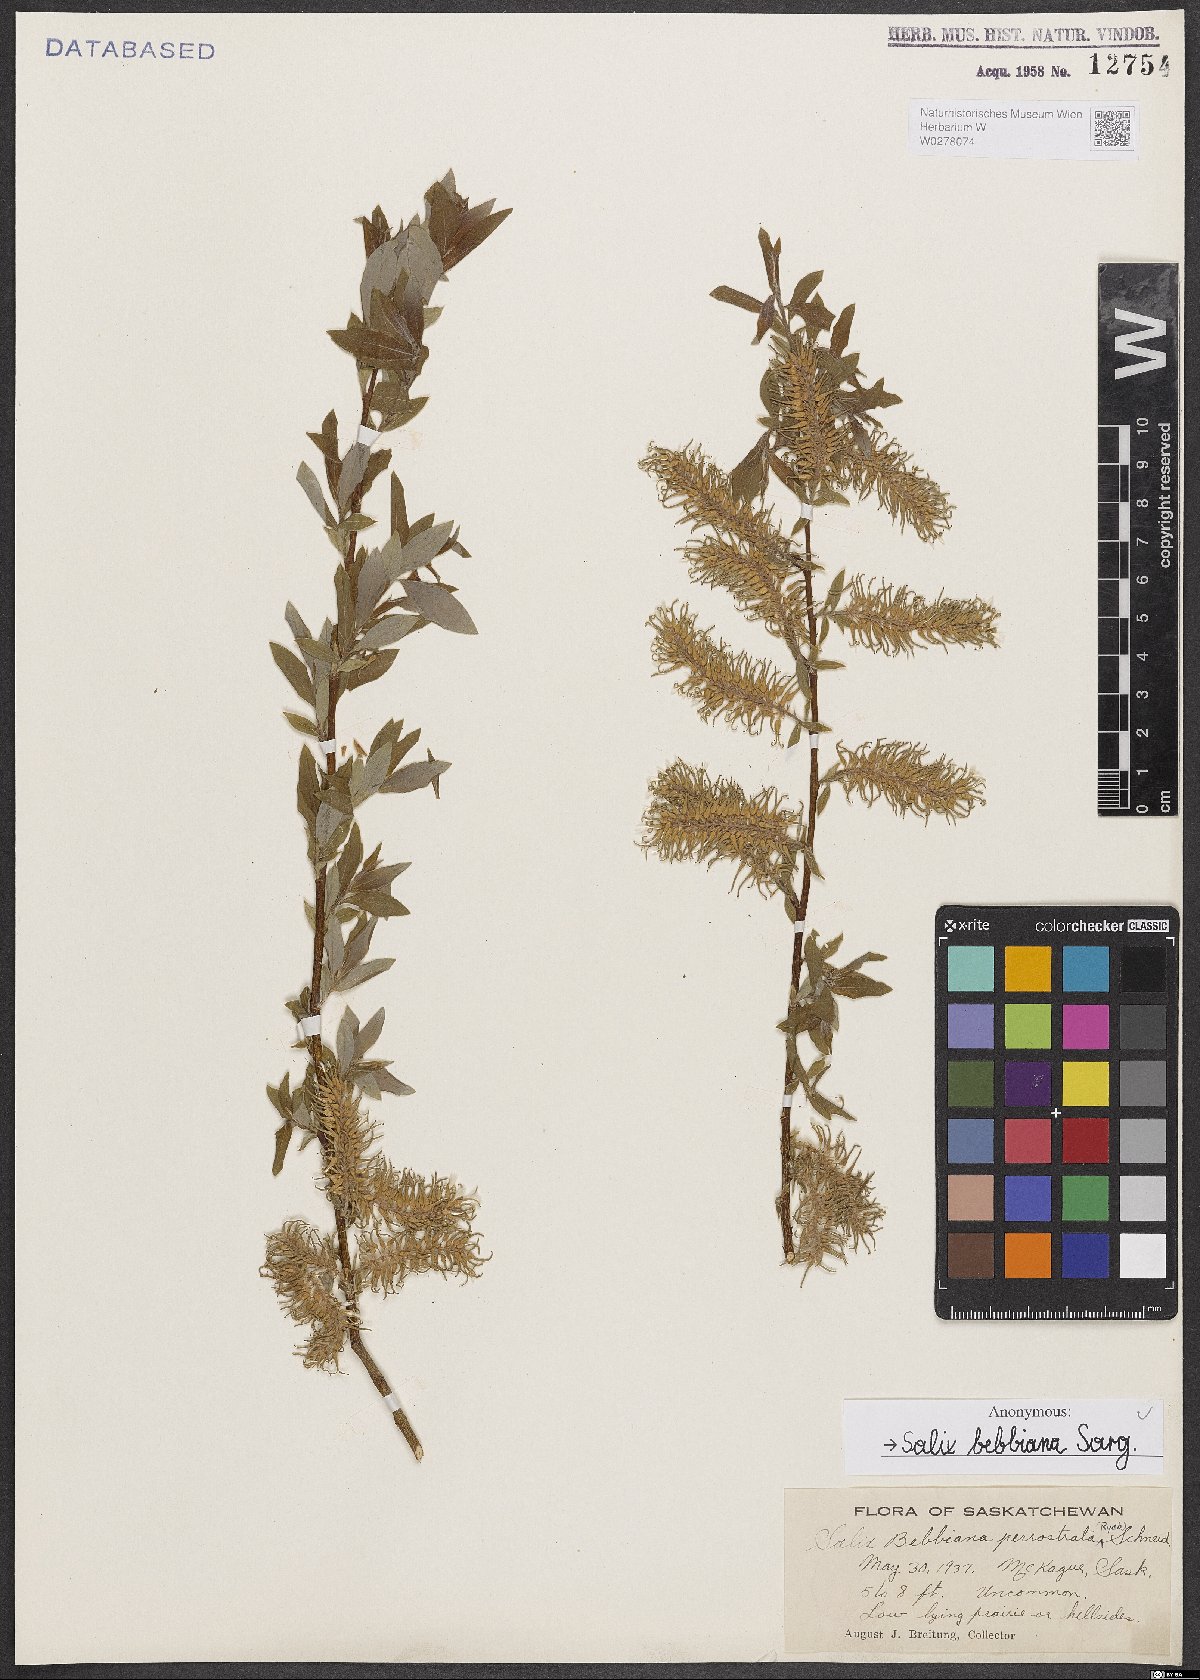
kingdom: Plantae
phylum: Tracheophyta
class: Magnoliopsida
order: Malpighiales
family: Salicaceae
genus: Salix
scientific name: Salix bebbiana
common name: Bebb's willow
